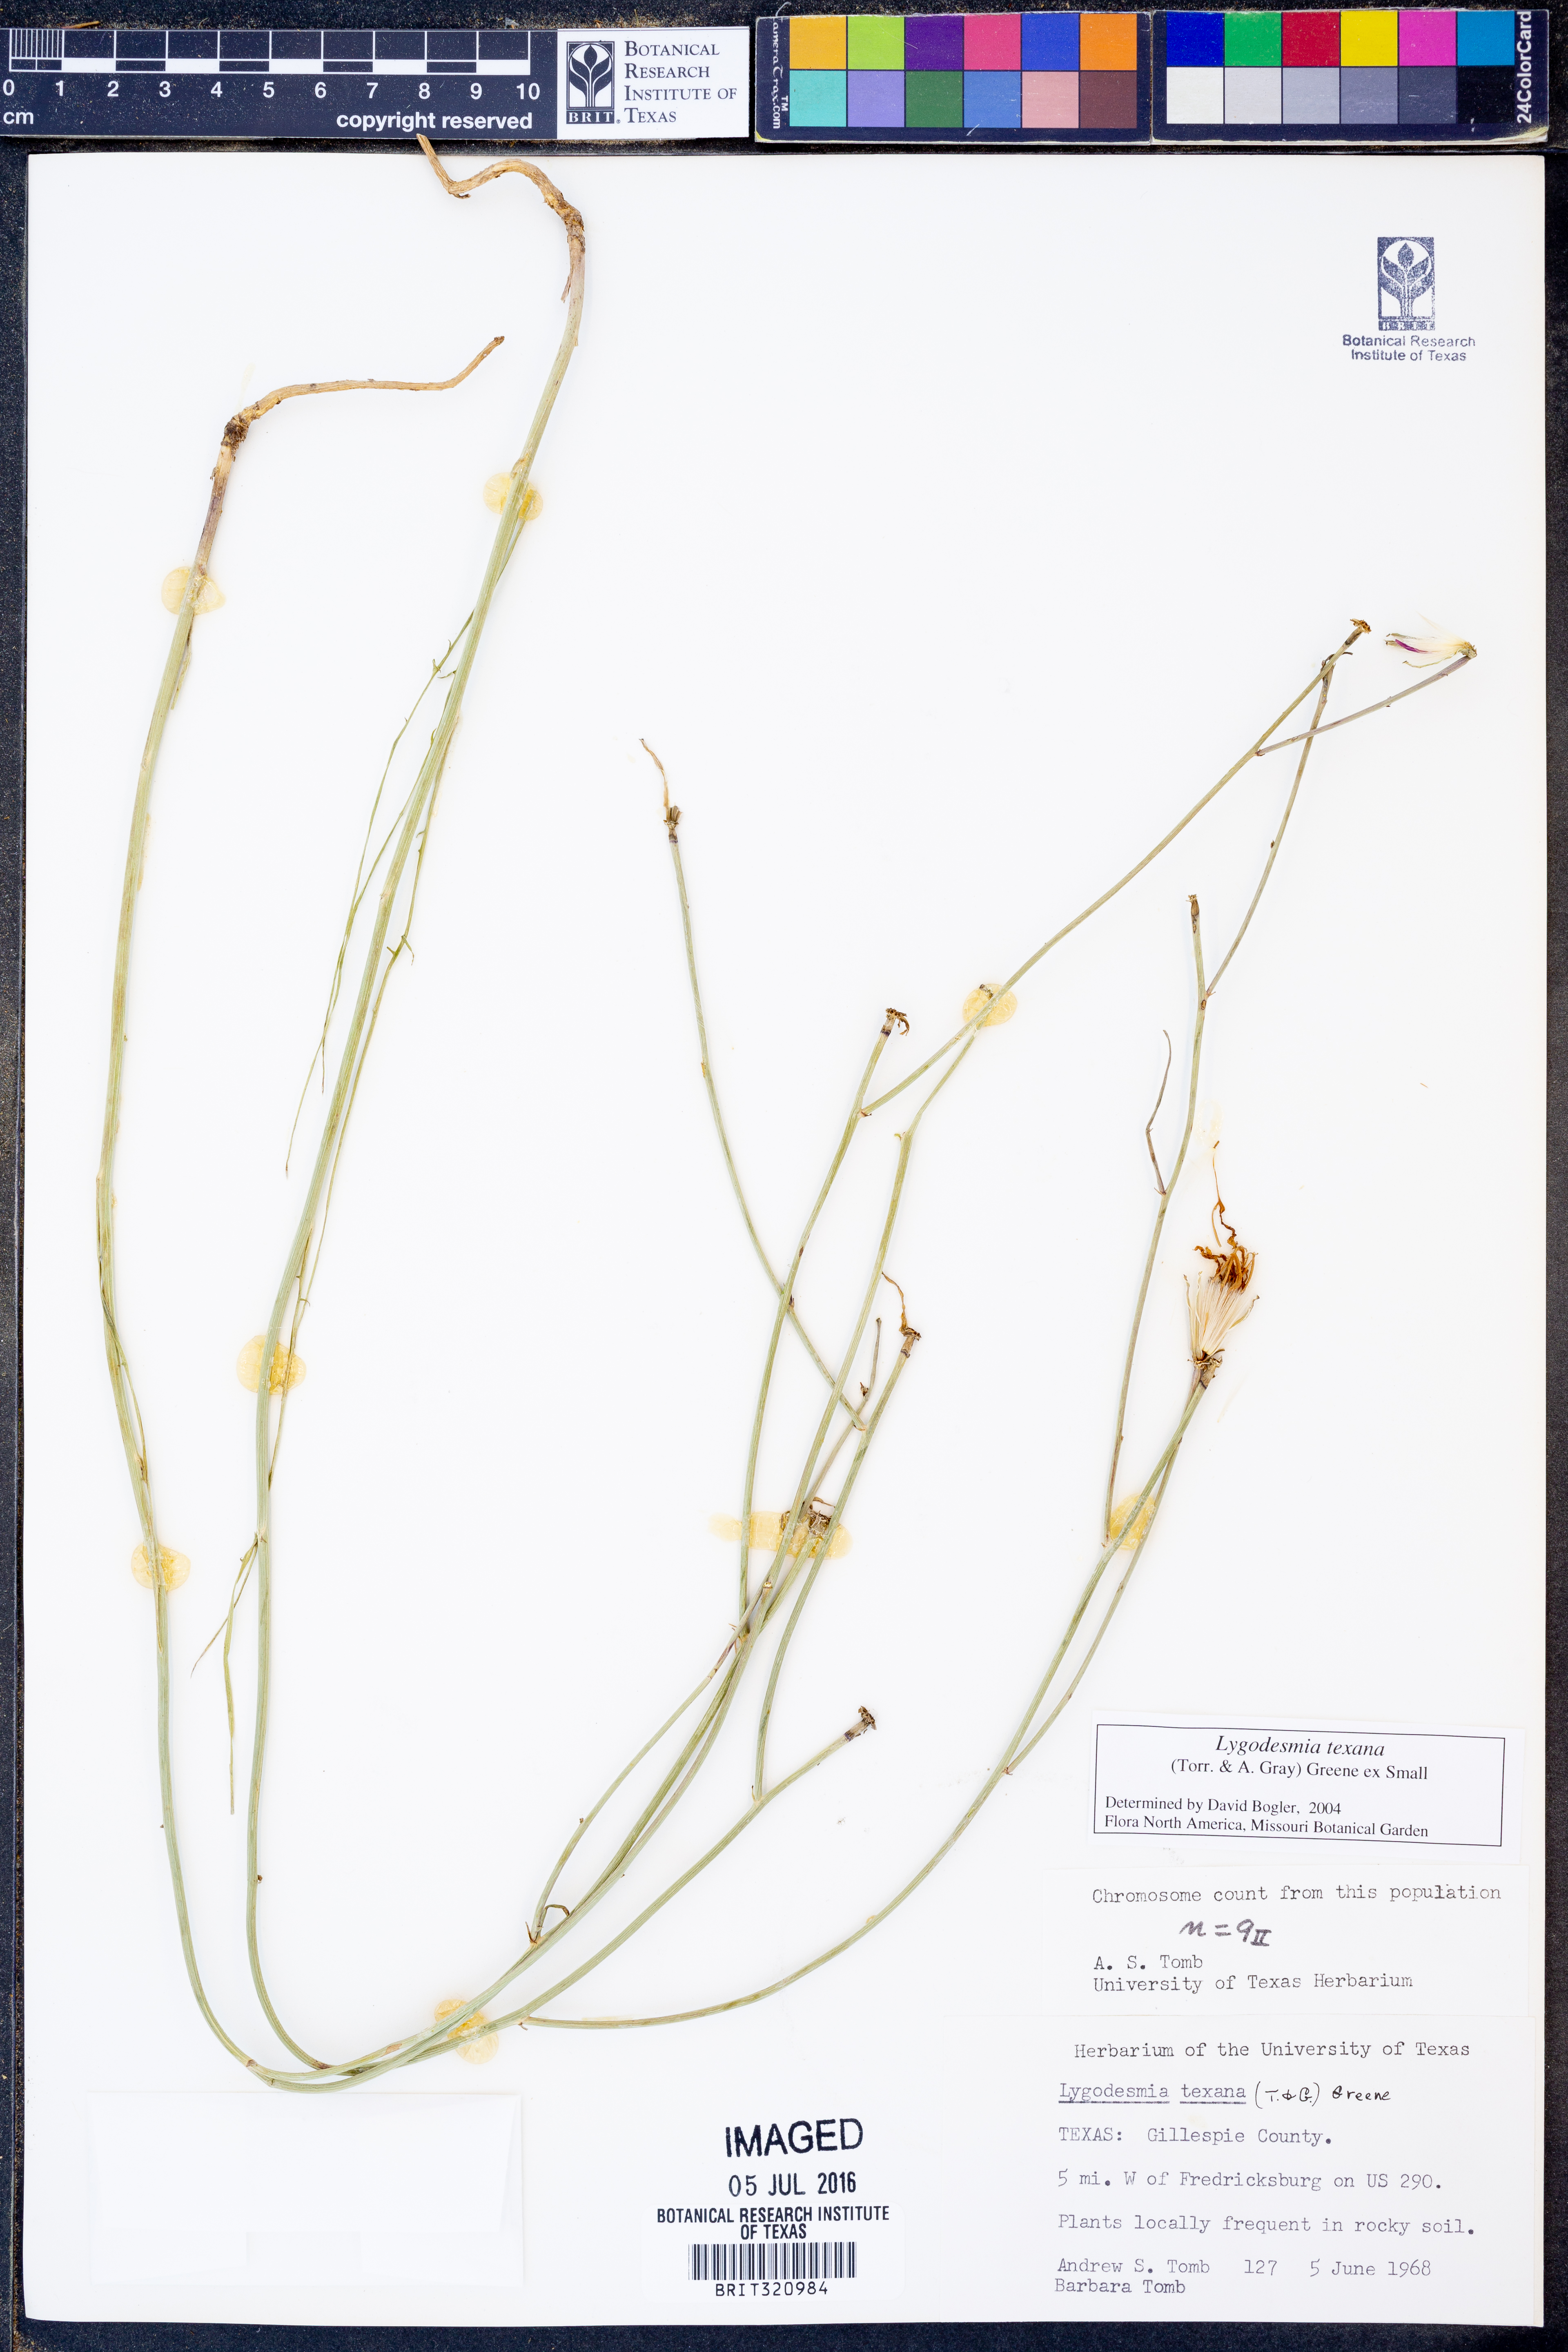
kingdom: Plantae
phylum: Tracheophyta
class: Magnoliopsida
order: Asterales
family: Asteraceae
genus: Lygodesmia
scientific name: Lygodesmia texana
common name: Texas skeleton-plant
